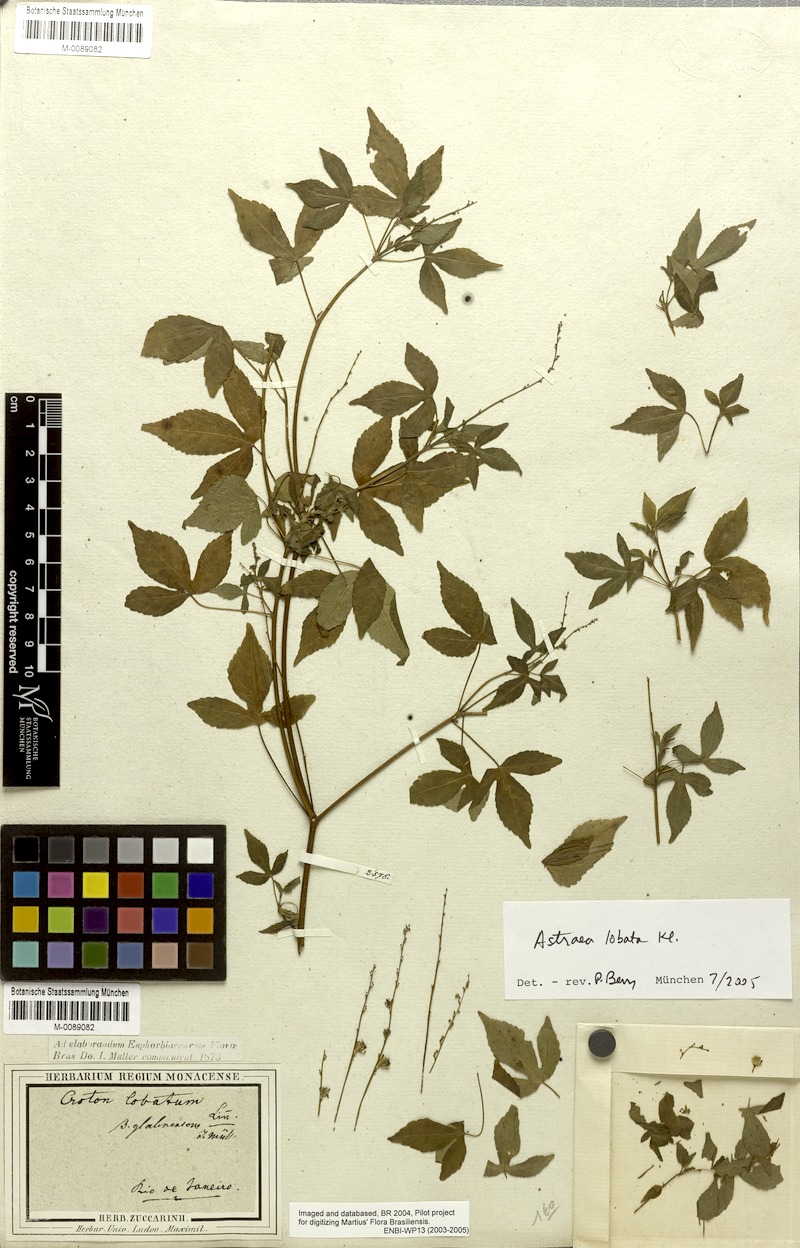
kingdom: Plantae
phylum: Tracheophyta
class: Magnoliopsida
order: Malpighiales
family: Euphorbiaceae
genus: Astraea
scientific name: Astraea lobata
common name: Lobed croton
